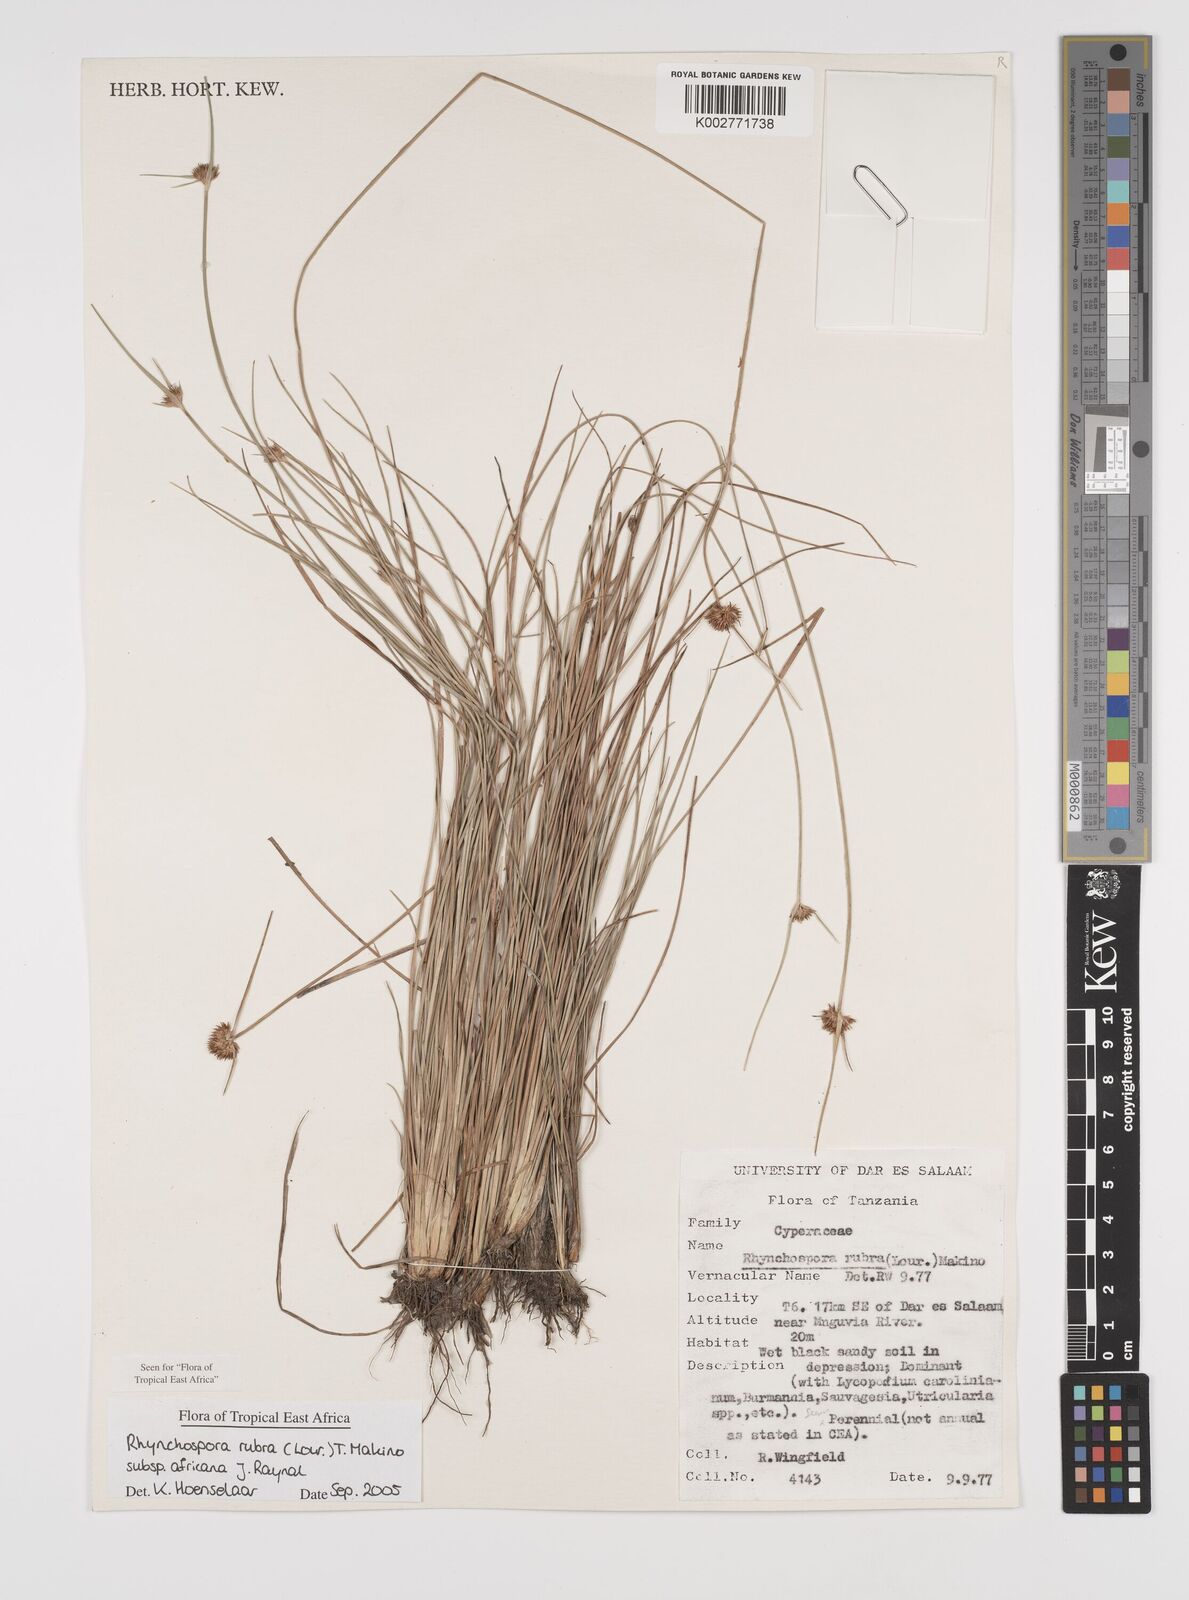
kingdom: Plantae
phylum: Tracheophyta
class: Liliopsida
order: Poales
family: Cyperaceae
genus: Rhynchospora
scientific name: Rhynchospora rubra
